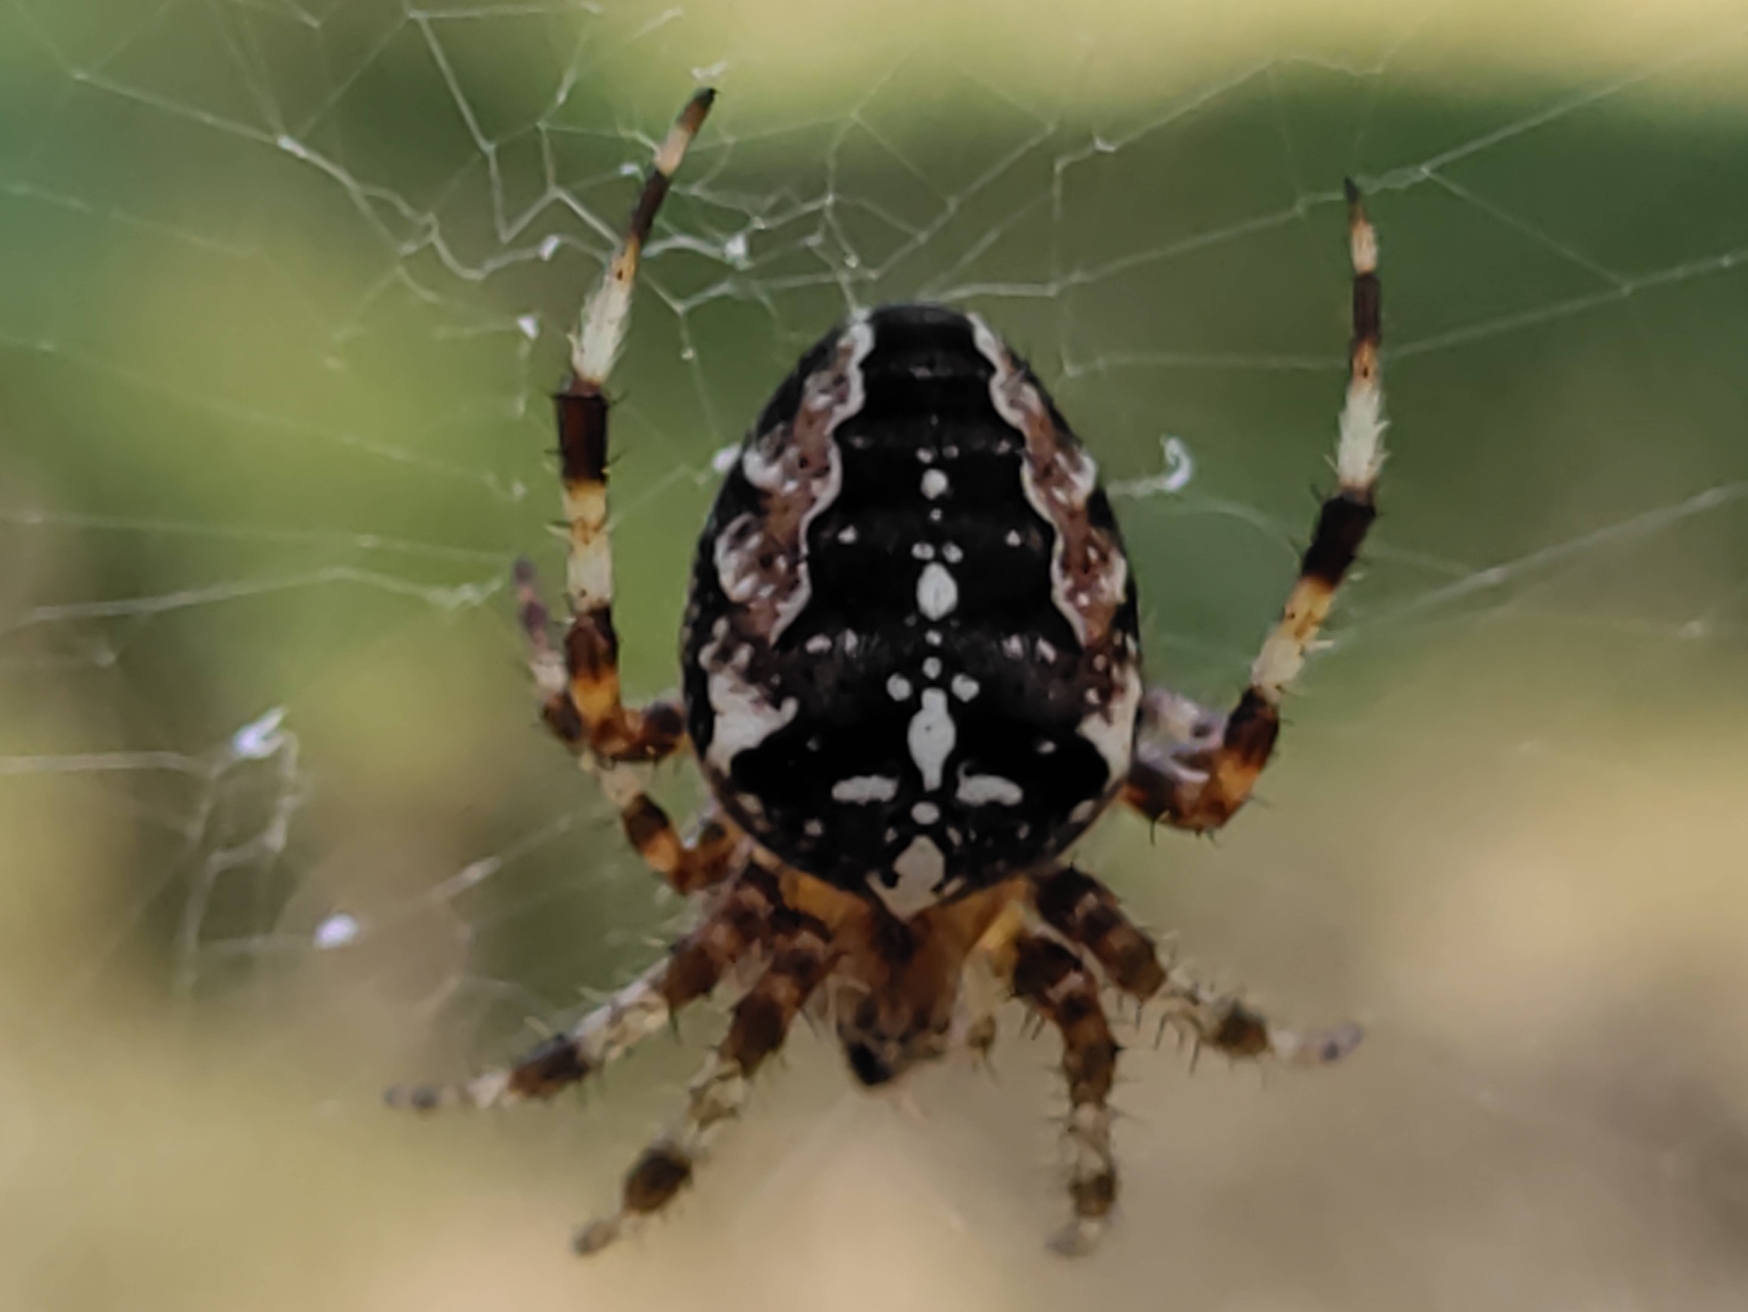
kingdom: Animalia
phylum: Arthropoda
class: Arachnida
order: Araneae
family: Araneidae
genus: Araneus
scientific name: Araneus diadematus
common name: Korsedderkop
